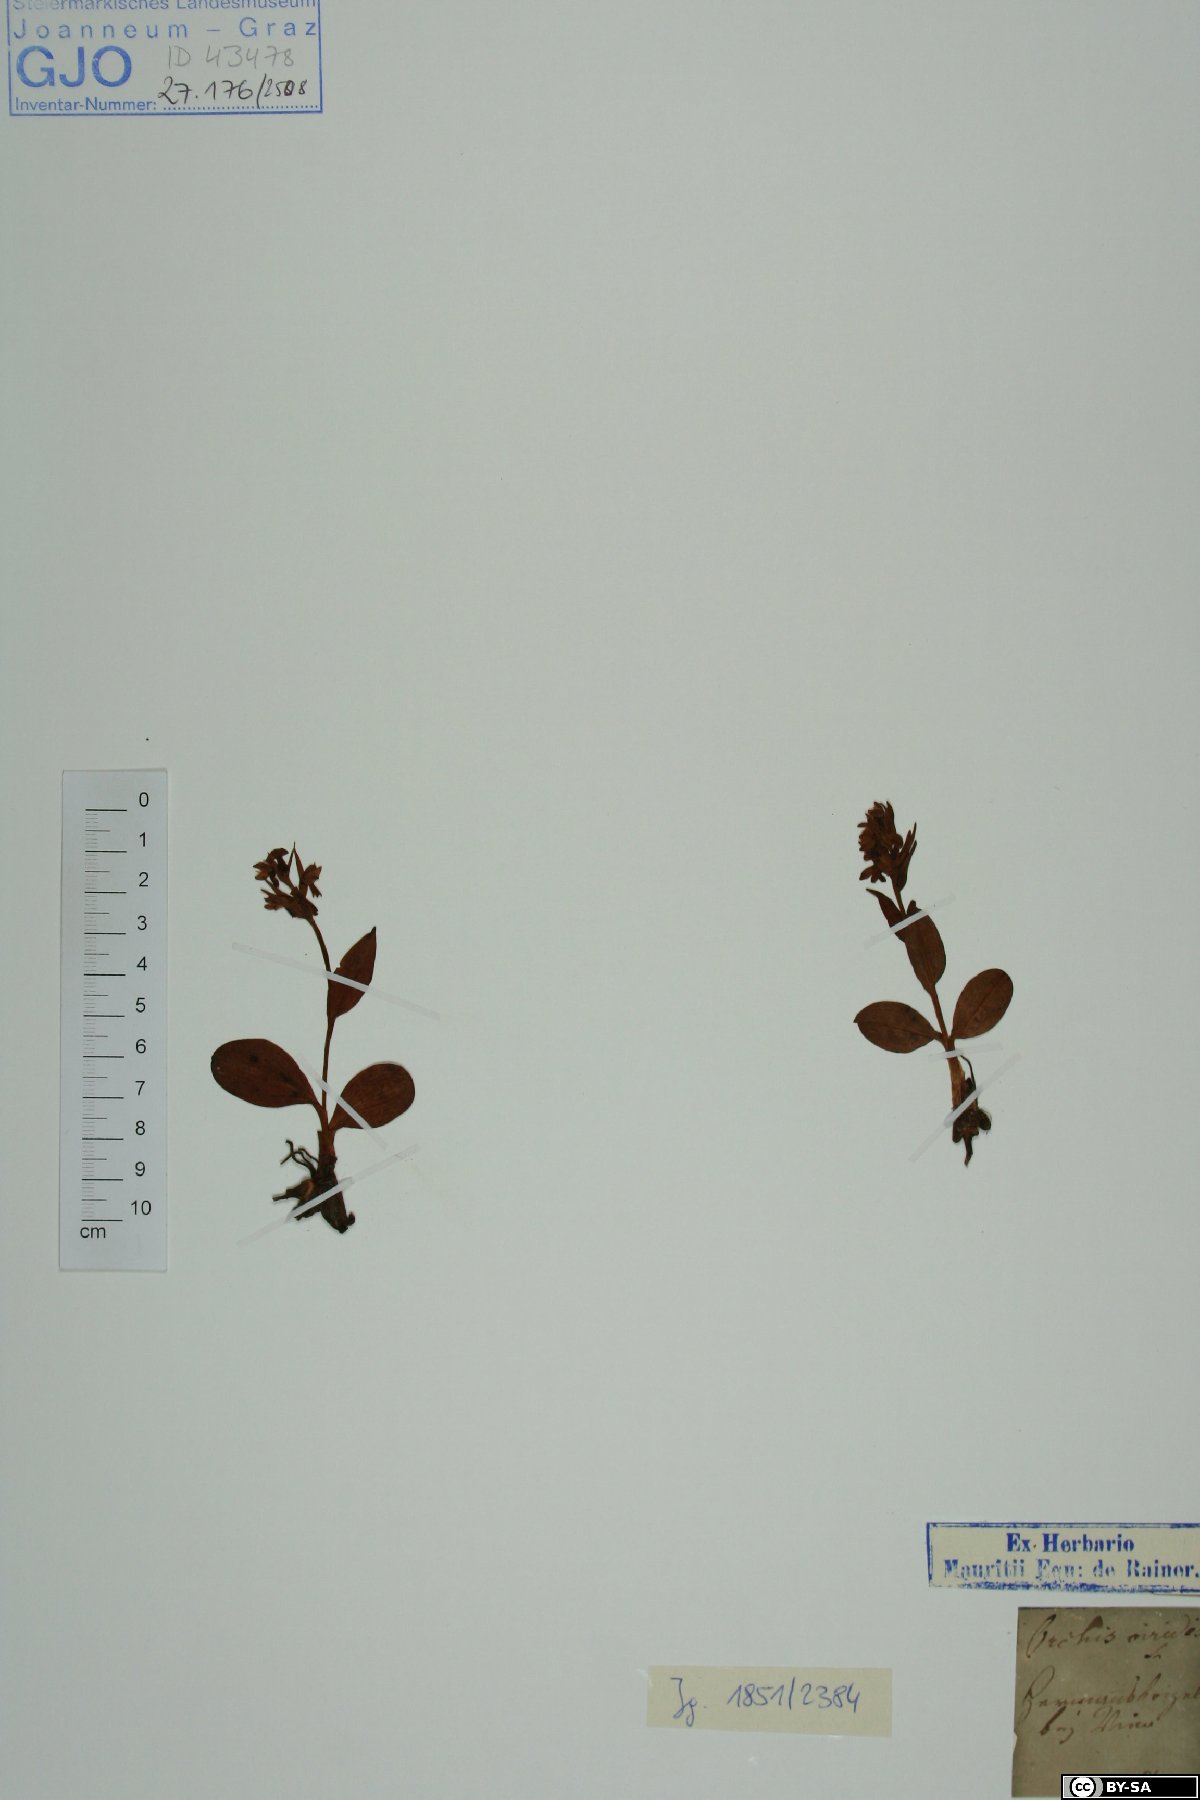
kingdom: Plantae
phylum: Tracheophyta
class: Liliopsida
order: Asparagales
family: Orchidaceae
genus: Dactylorhiza
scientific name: Dactylorhiza viridis
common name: Longbract frog orchid
